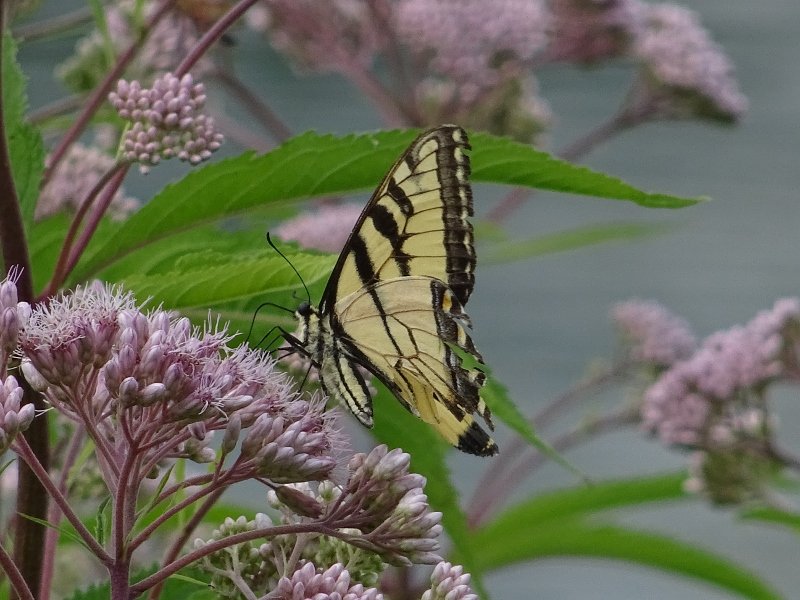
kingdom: Animalia
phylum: Arthropoda
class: Insecta
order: Lepidoptera
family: Papilionidae
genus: Pterourus
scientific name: Pterourus glaucus
